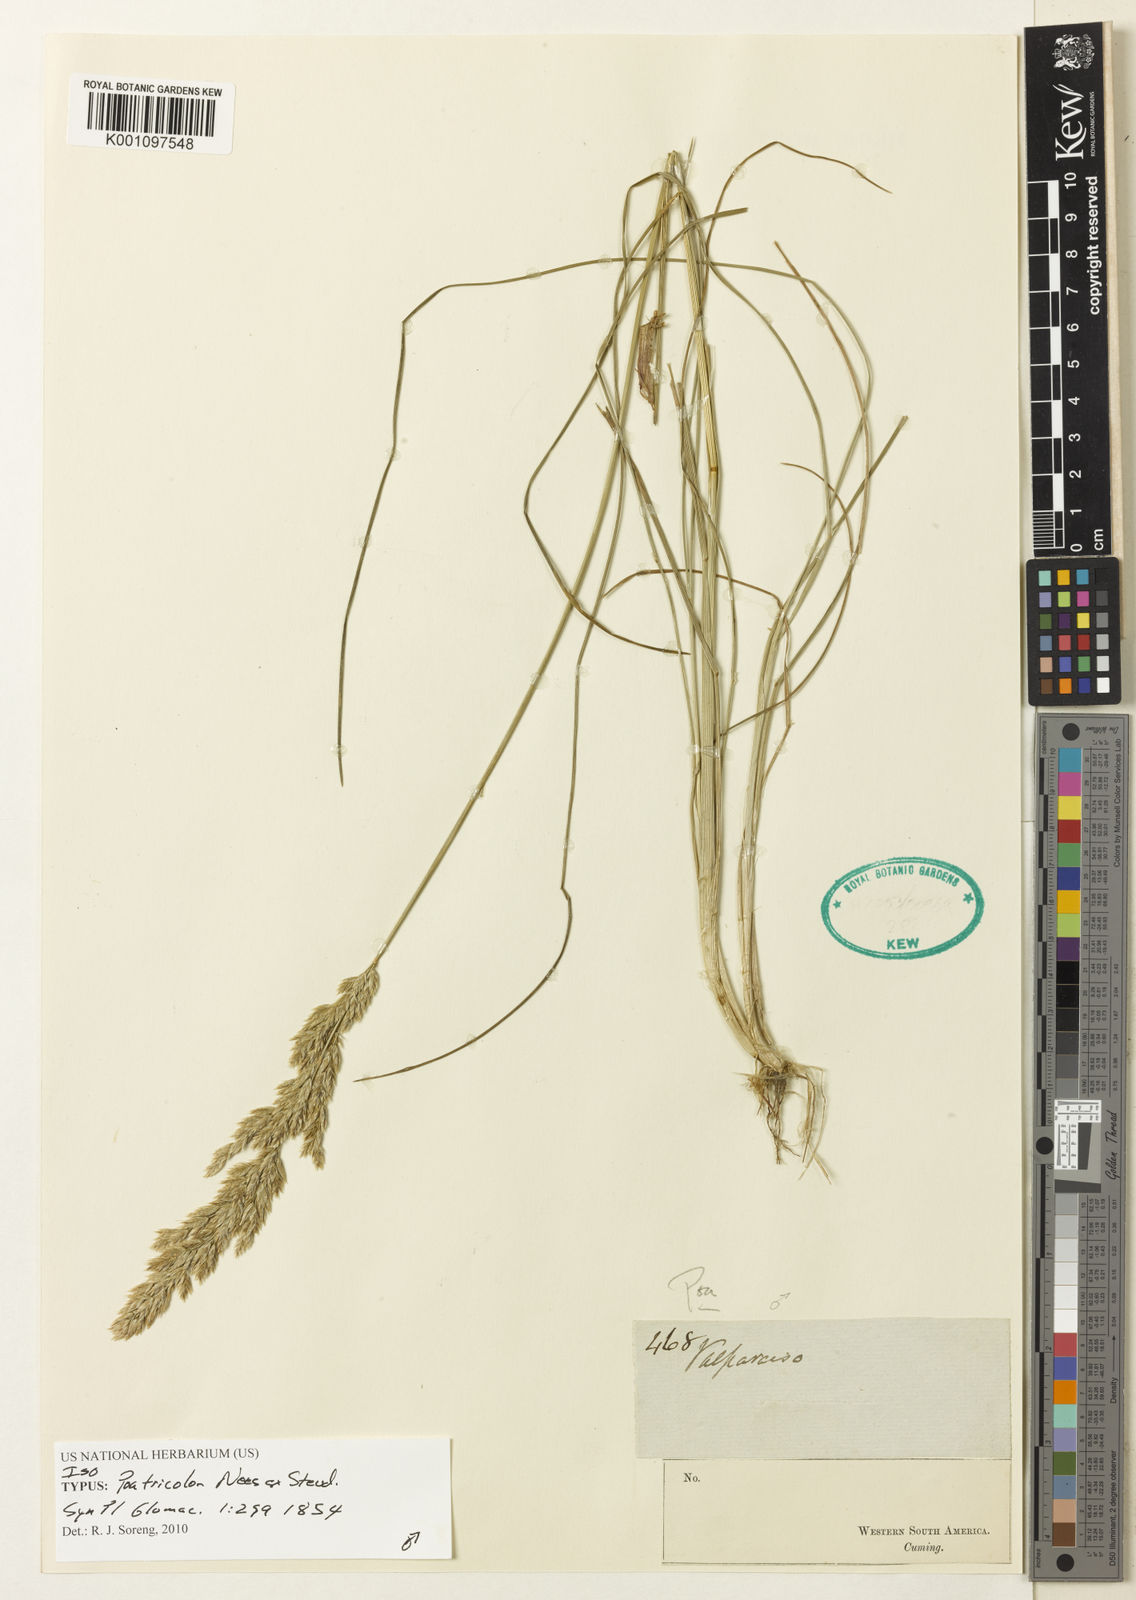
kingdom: Plantae
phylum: Tracheophyta
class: Liliopsida
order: Poales
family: Poaceae
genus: Poa
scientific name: Poa tricolor
